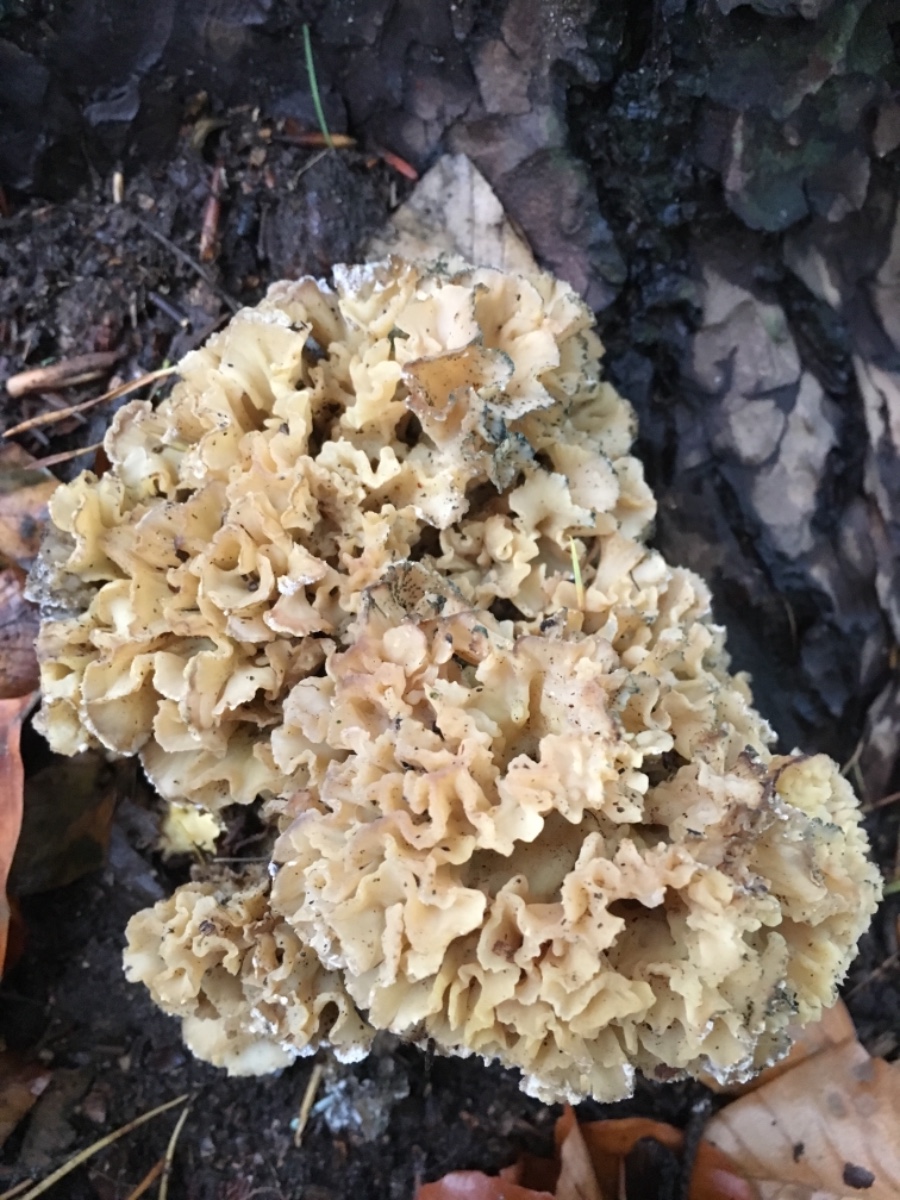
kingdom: Fungi
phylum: Basidiomycota
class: Agaricomycetes
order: Polyporales
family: Sparassidaceae
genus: Sparassis
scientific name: Sparassis crispa
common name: kruset blomkålssvamp
